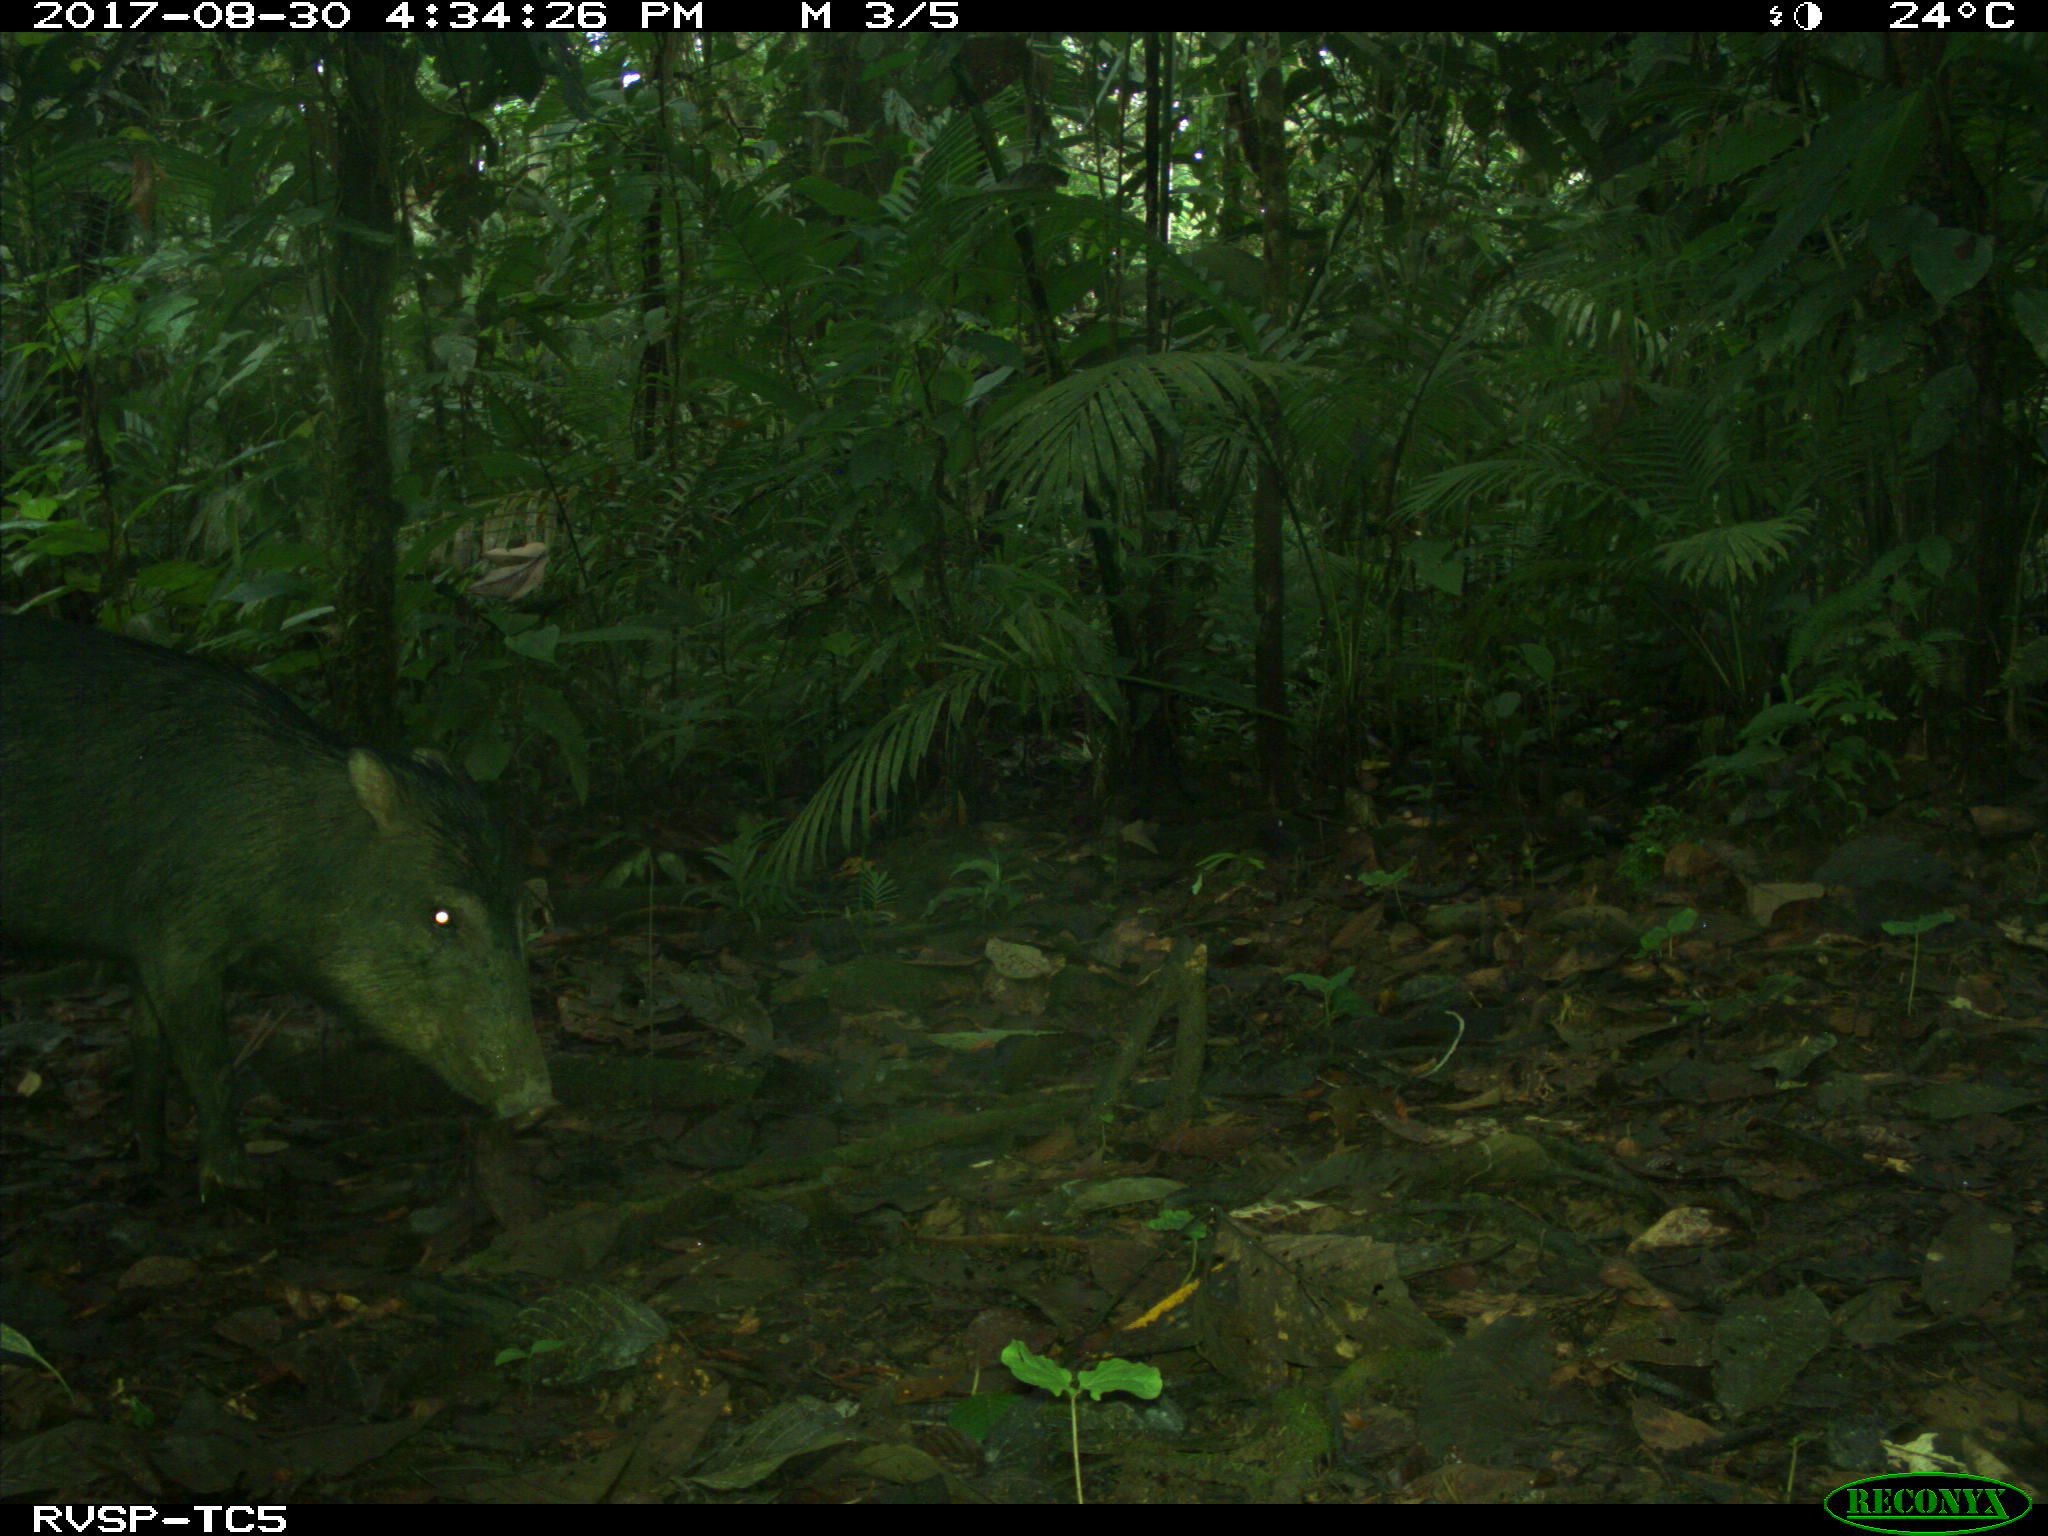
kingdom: Animalia
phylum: Chordata
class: Mammalia
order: Artiodactyla
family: Tayassuidae
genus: Tayassu
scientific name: Tayassu pecari
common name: White-lipped peccary
